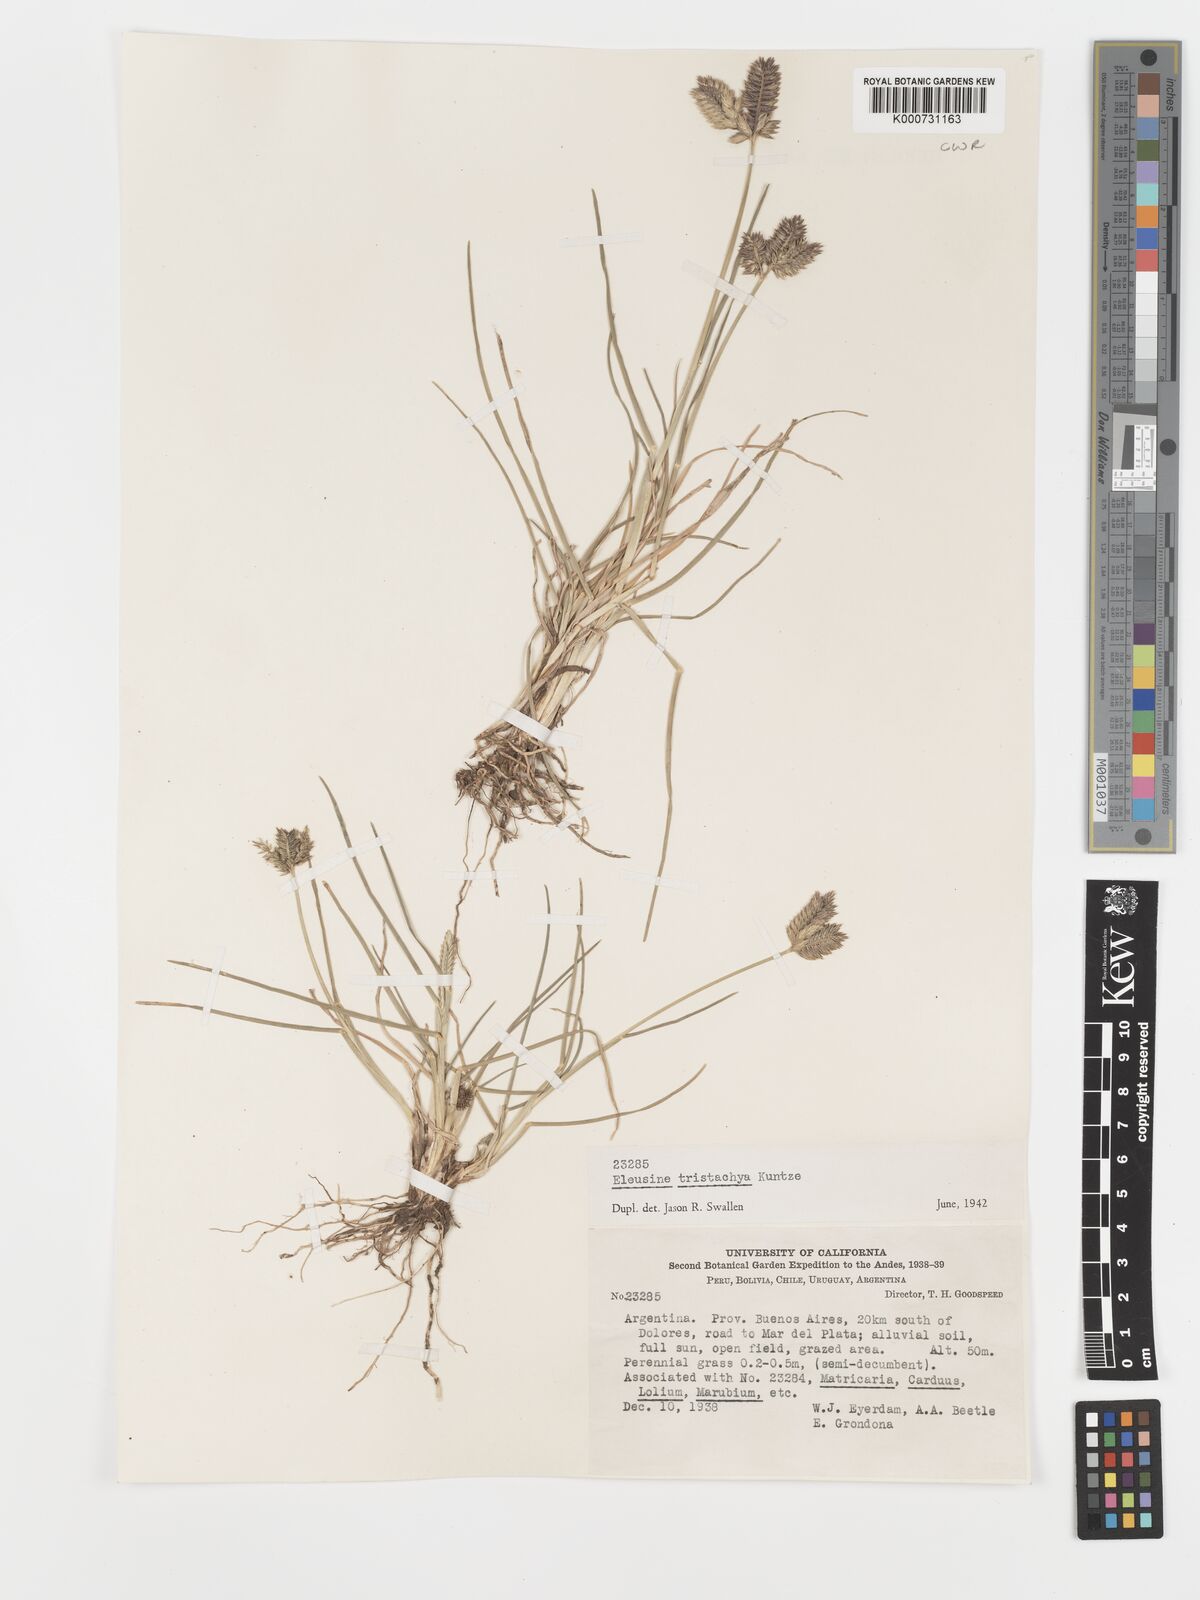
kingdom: Plantae
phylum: Tracheophyta
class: Liliopsida
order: Poales
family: Poaceae
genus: Eleusine
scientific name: Eleusine tristachya
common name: American yard-grass
